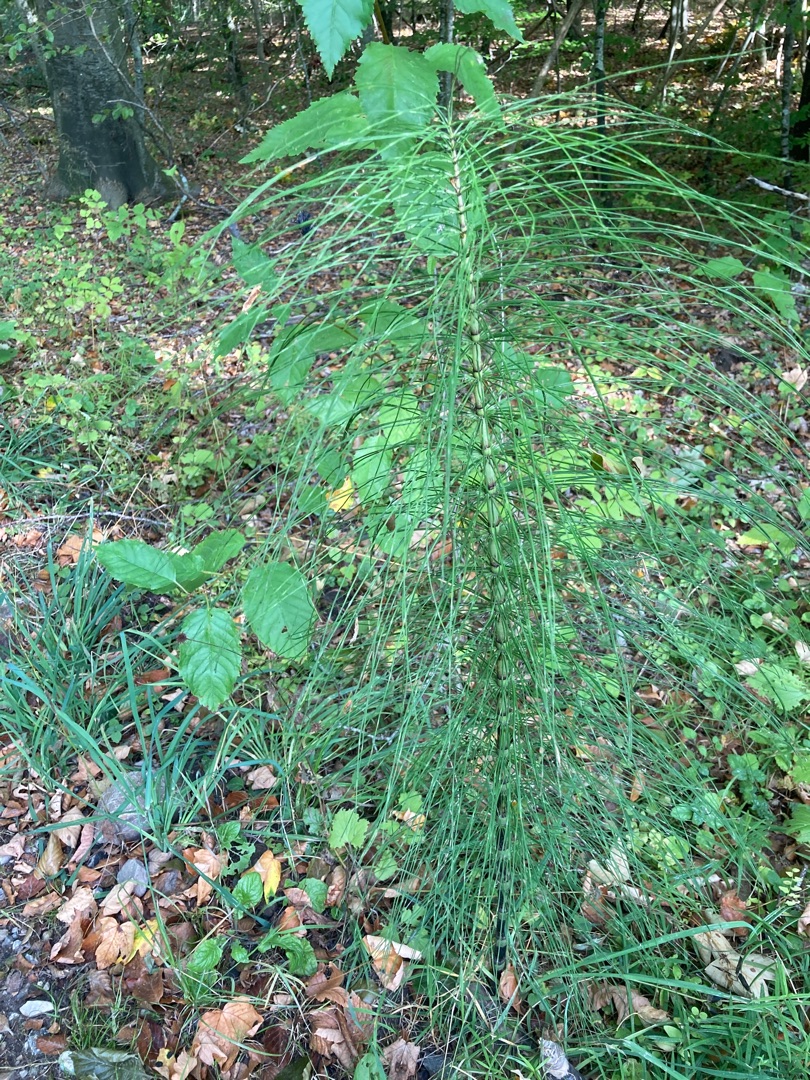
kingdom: Plantae
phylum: Tracheophyta
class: Polypodiopsida
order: Equisetales
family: Equisetaceae
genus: Equisetum
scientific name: Equisetum telmateia
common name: Elfenbens-padderok
